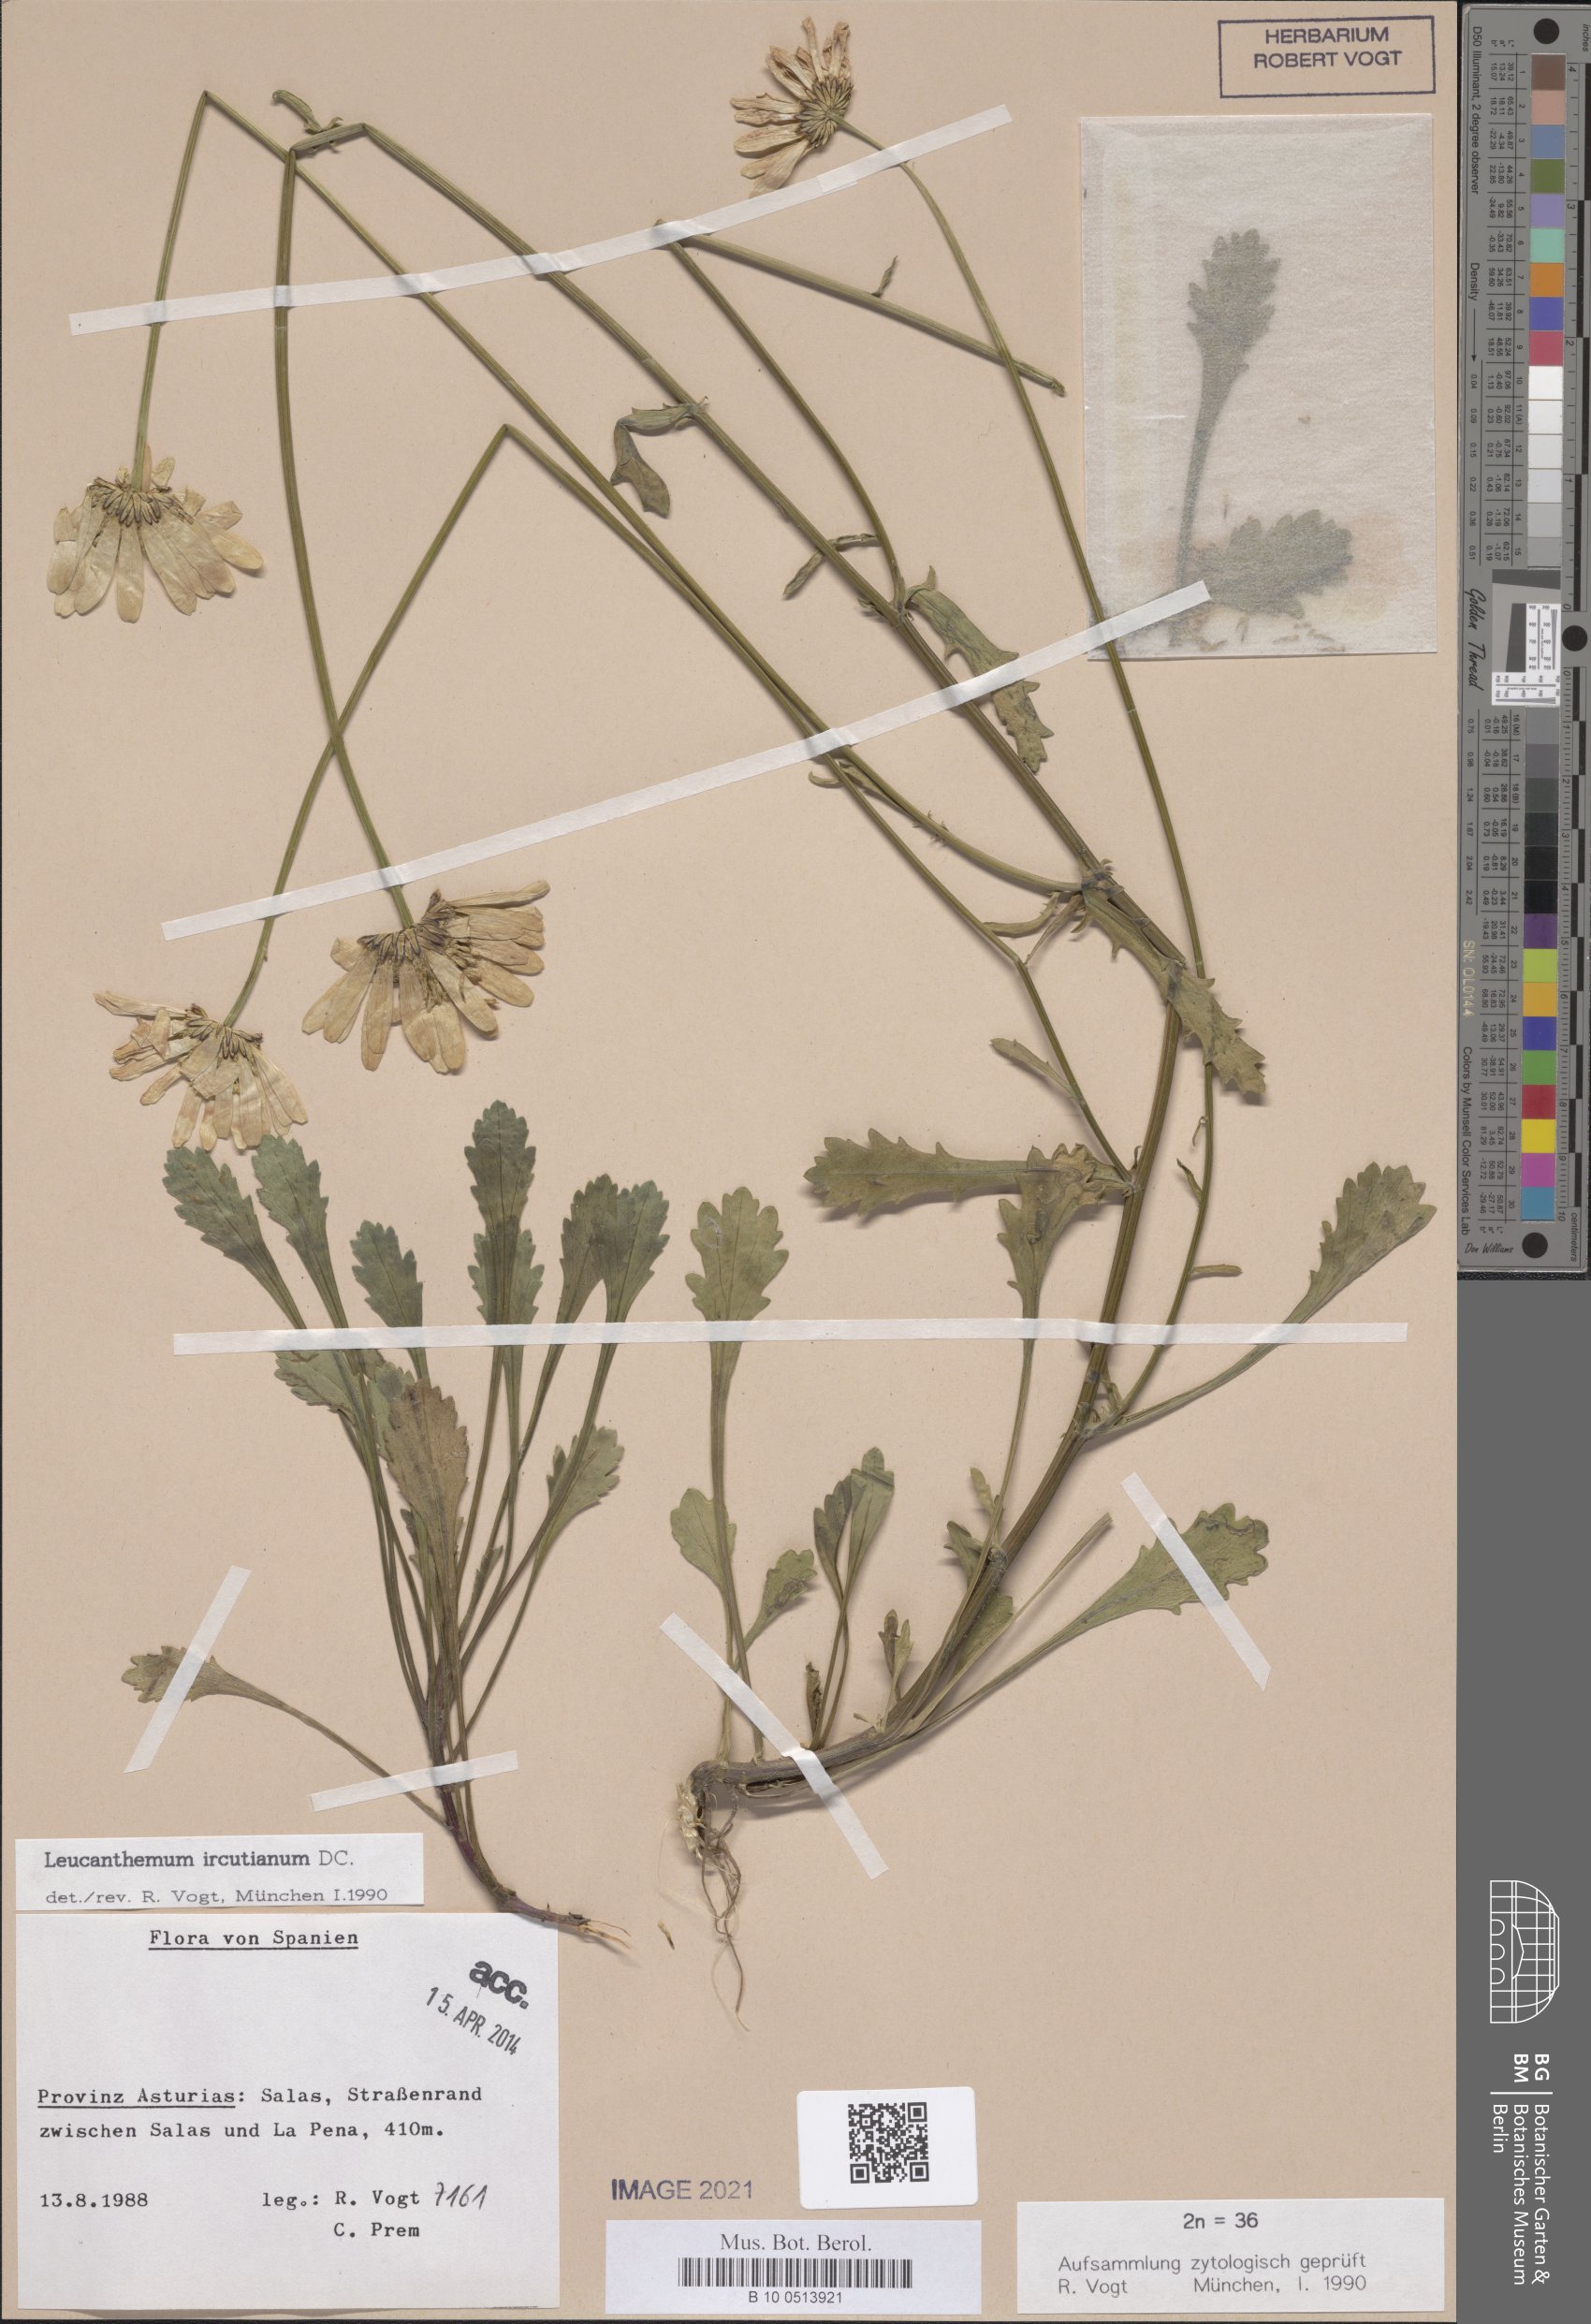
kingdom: Plantae
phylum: Tracheophyta
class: Magnoliopsida
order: Asterales
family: Asteraceae
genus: Leucanthemum
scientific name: Leucanthemum ircutianum
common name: Daisy
